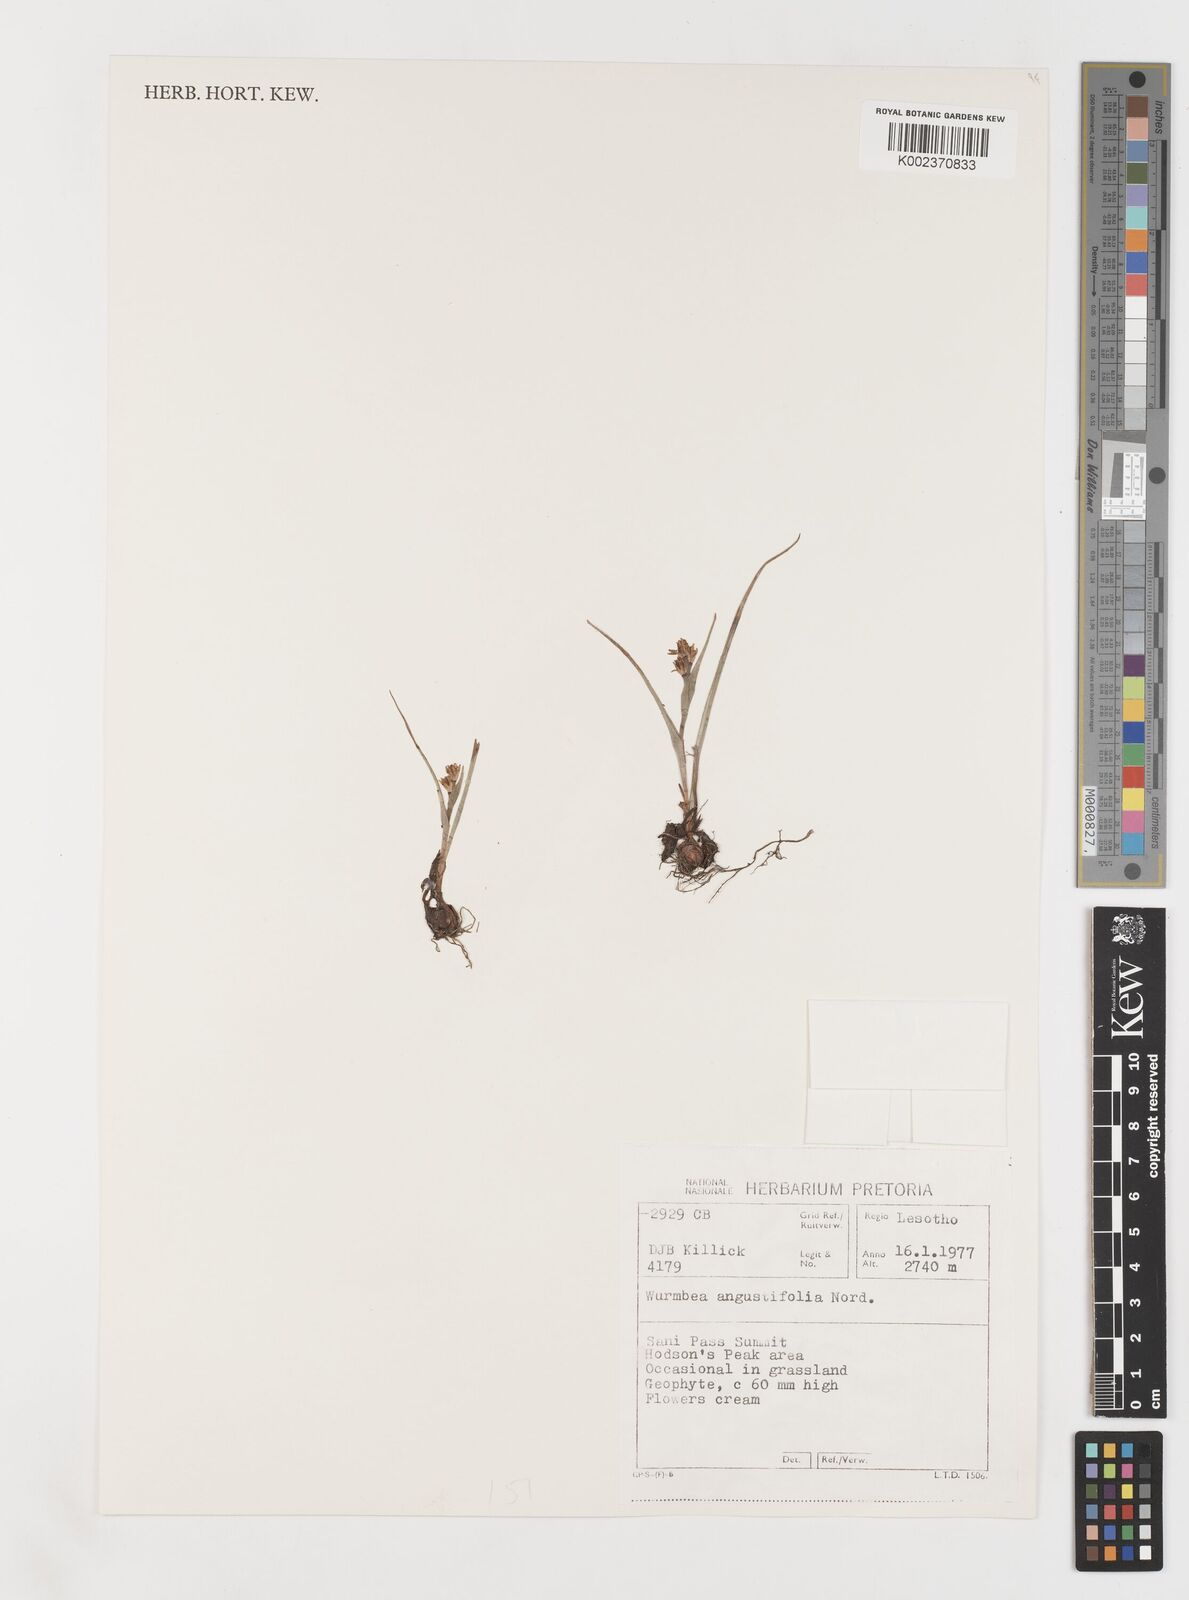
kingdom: Plantae
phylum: Tracheophyta
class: Liliopsida
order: Liliales
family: Colchicaceae
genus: Wurmbea
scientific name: Wurmbea angustifolia
